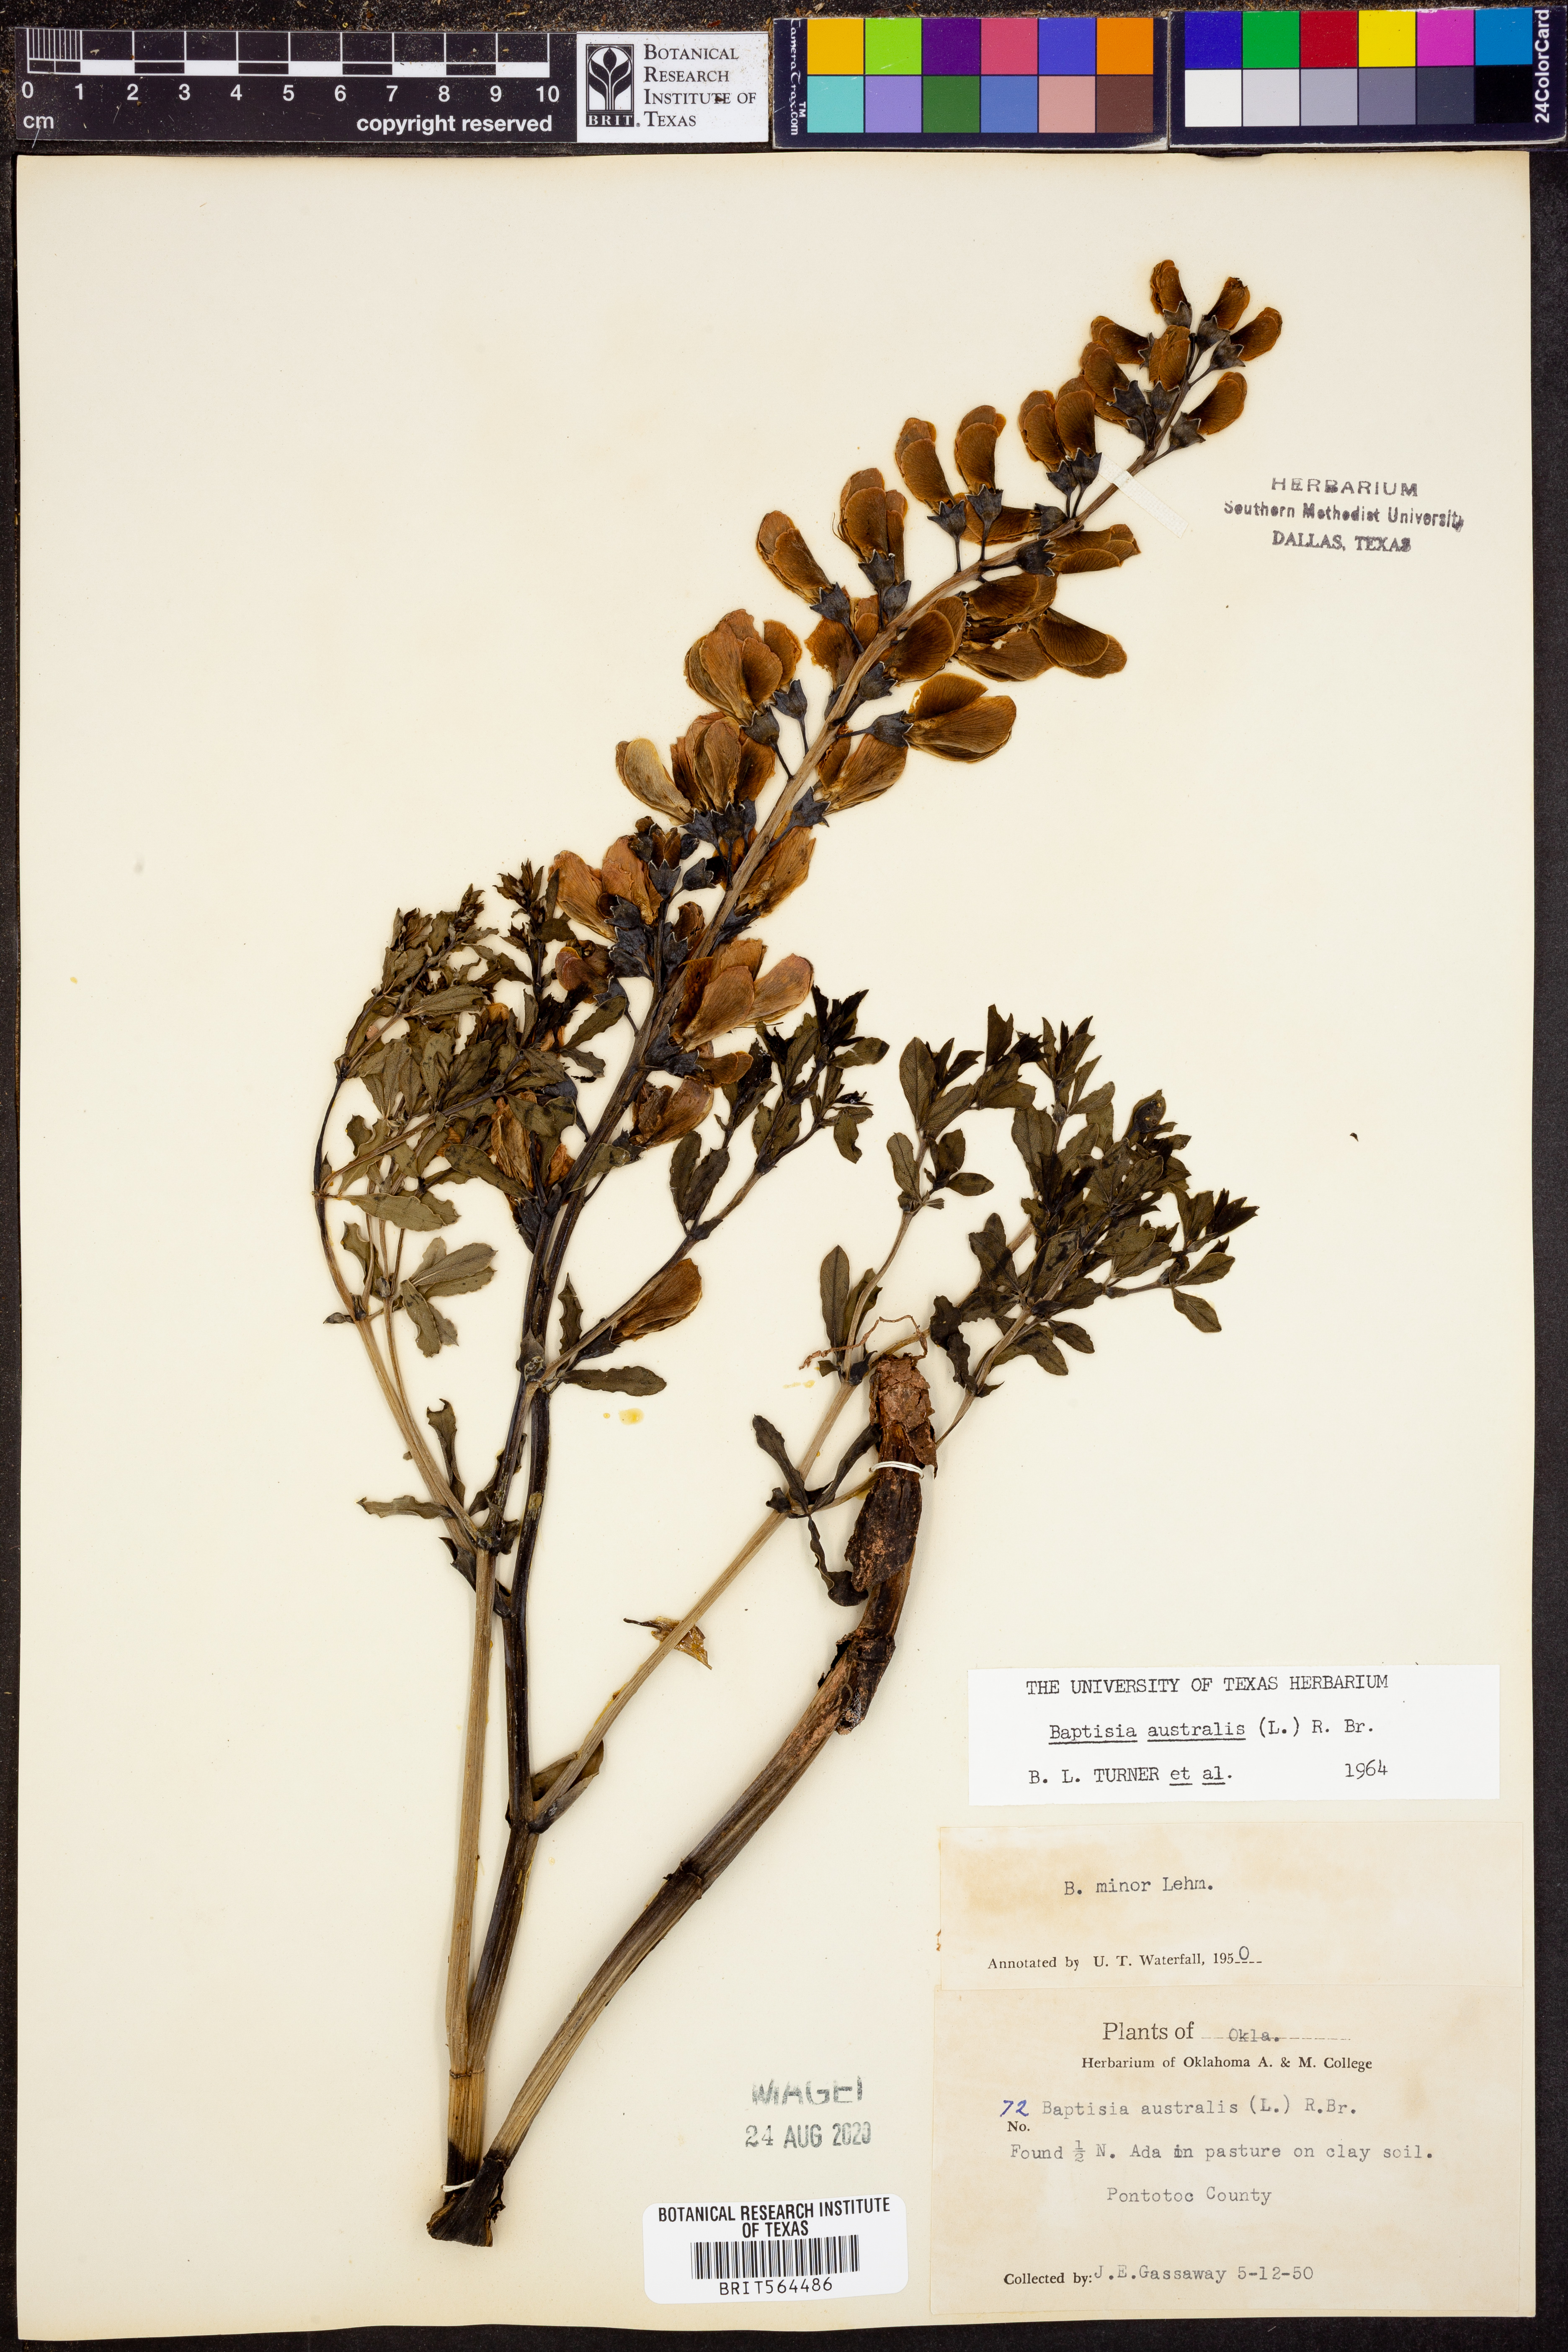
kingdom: Plantae
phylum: Tracheophyta
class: Magnoliopsida
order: Fabales
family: Fabaceae
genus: Baptisia
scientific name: Baptisia australis
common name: Blue false indigo
